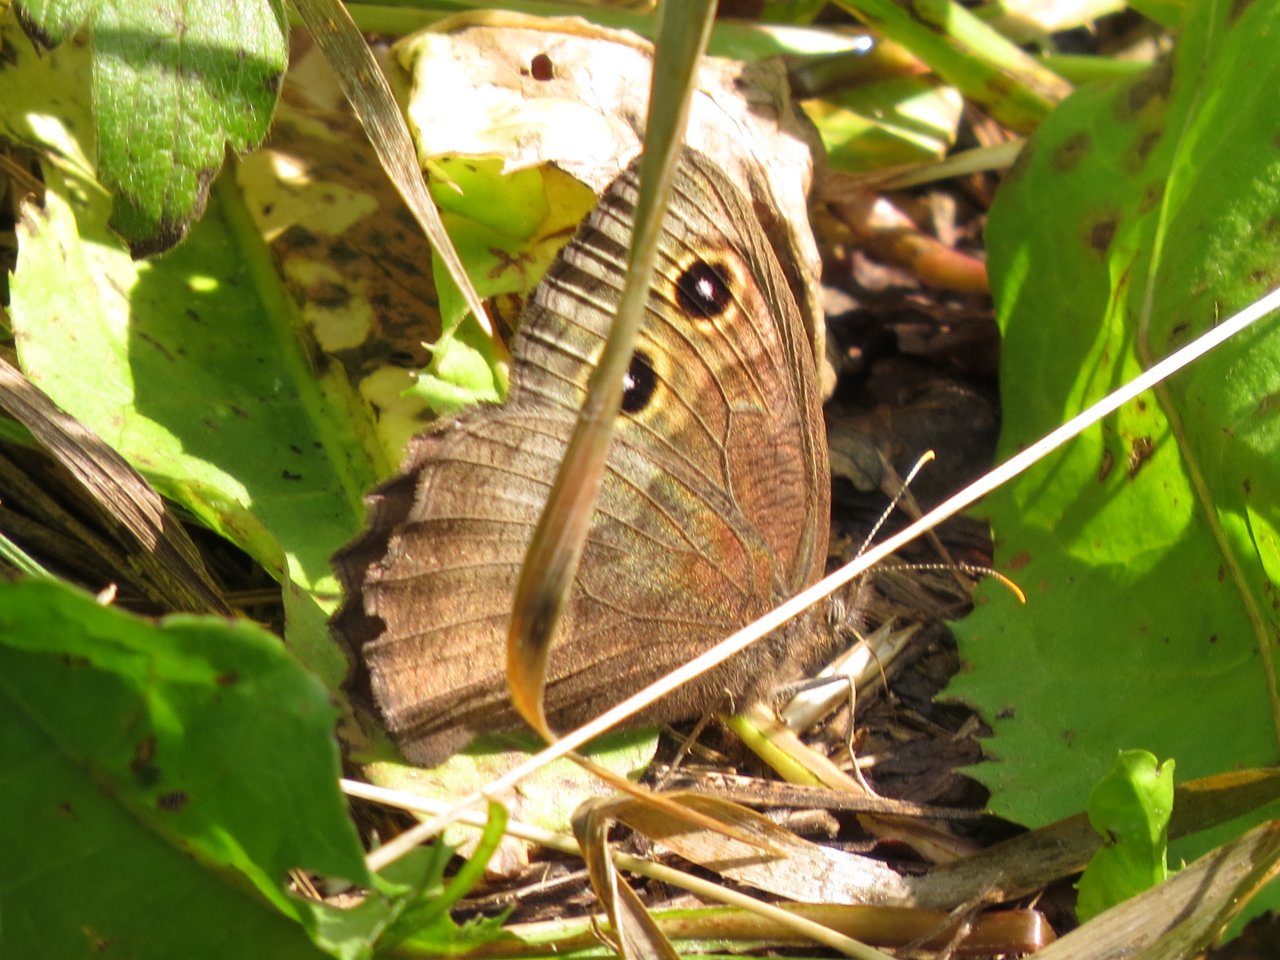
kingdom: Animalia
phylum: Arthropoda
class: Insecta
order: Lepidoptera
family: Nymphalidae
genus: Cercyonis
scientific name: Cercyonis pegala
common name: Common Wood-Nymph
